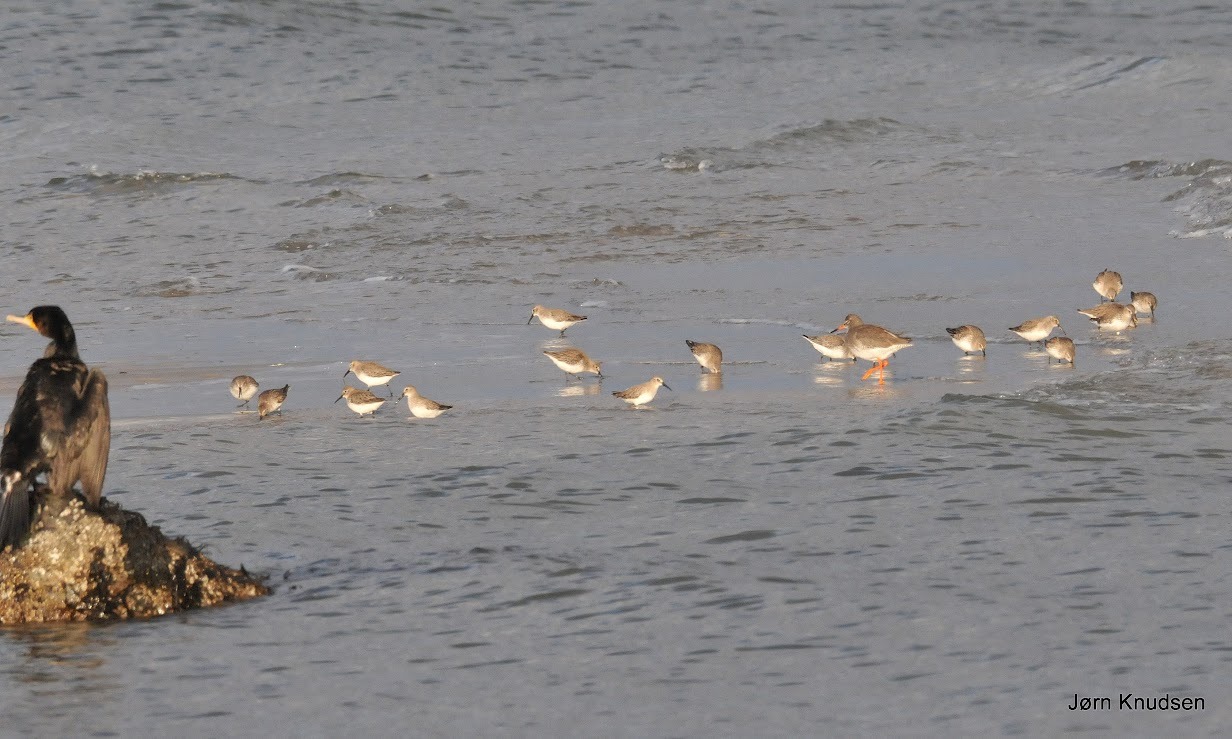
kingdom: Animalia
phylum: Chordata
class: Aves
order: Charadriiformes
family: Scolopacidae
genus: Calidris
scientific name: Calidris alpina
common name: Almindelig ryle
